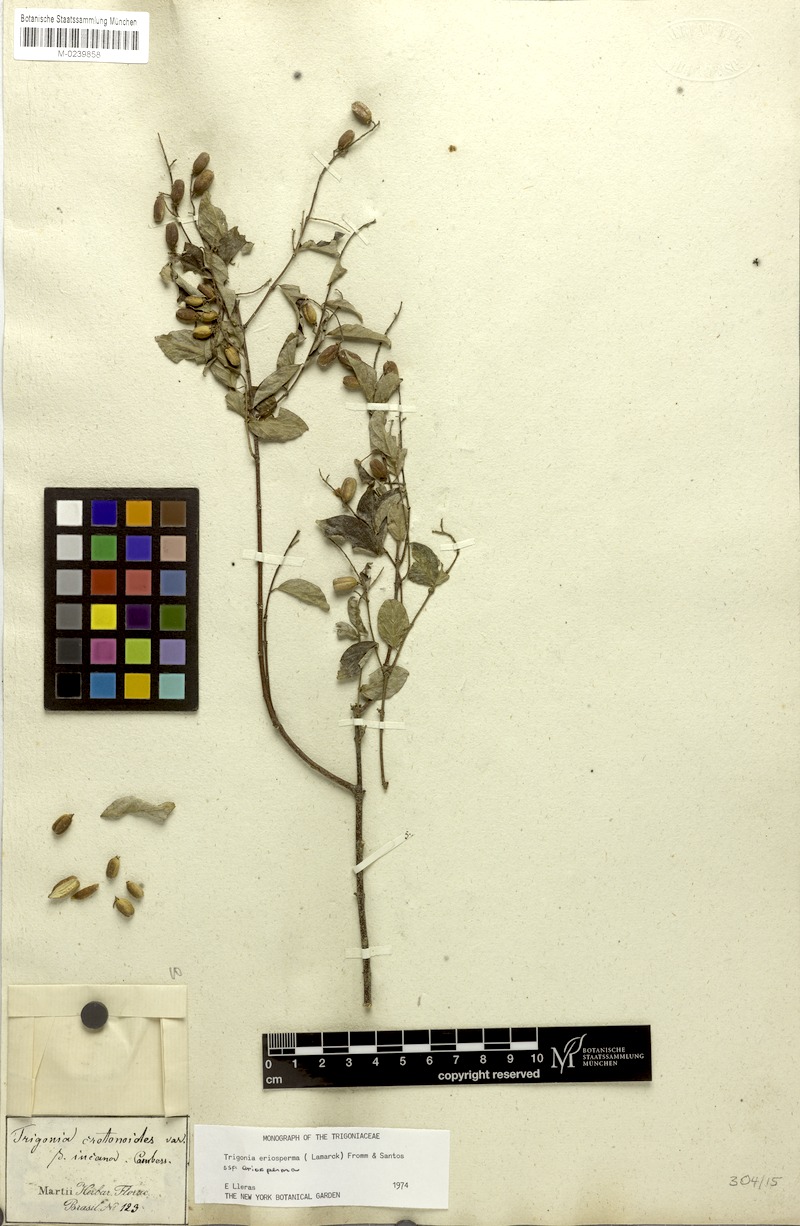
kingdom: Plantae
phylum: Tracheophyta
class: Magnoliopsida
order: Malpighiales
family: Trigoniaceae
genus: Trigonia
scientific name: Trigonia eriosperma
